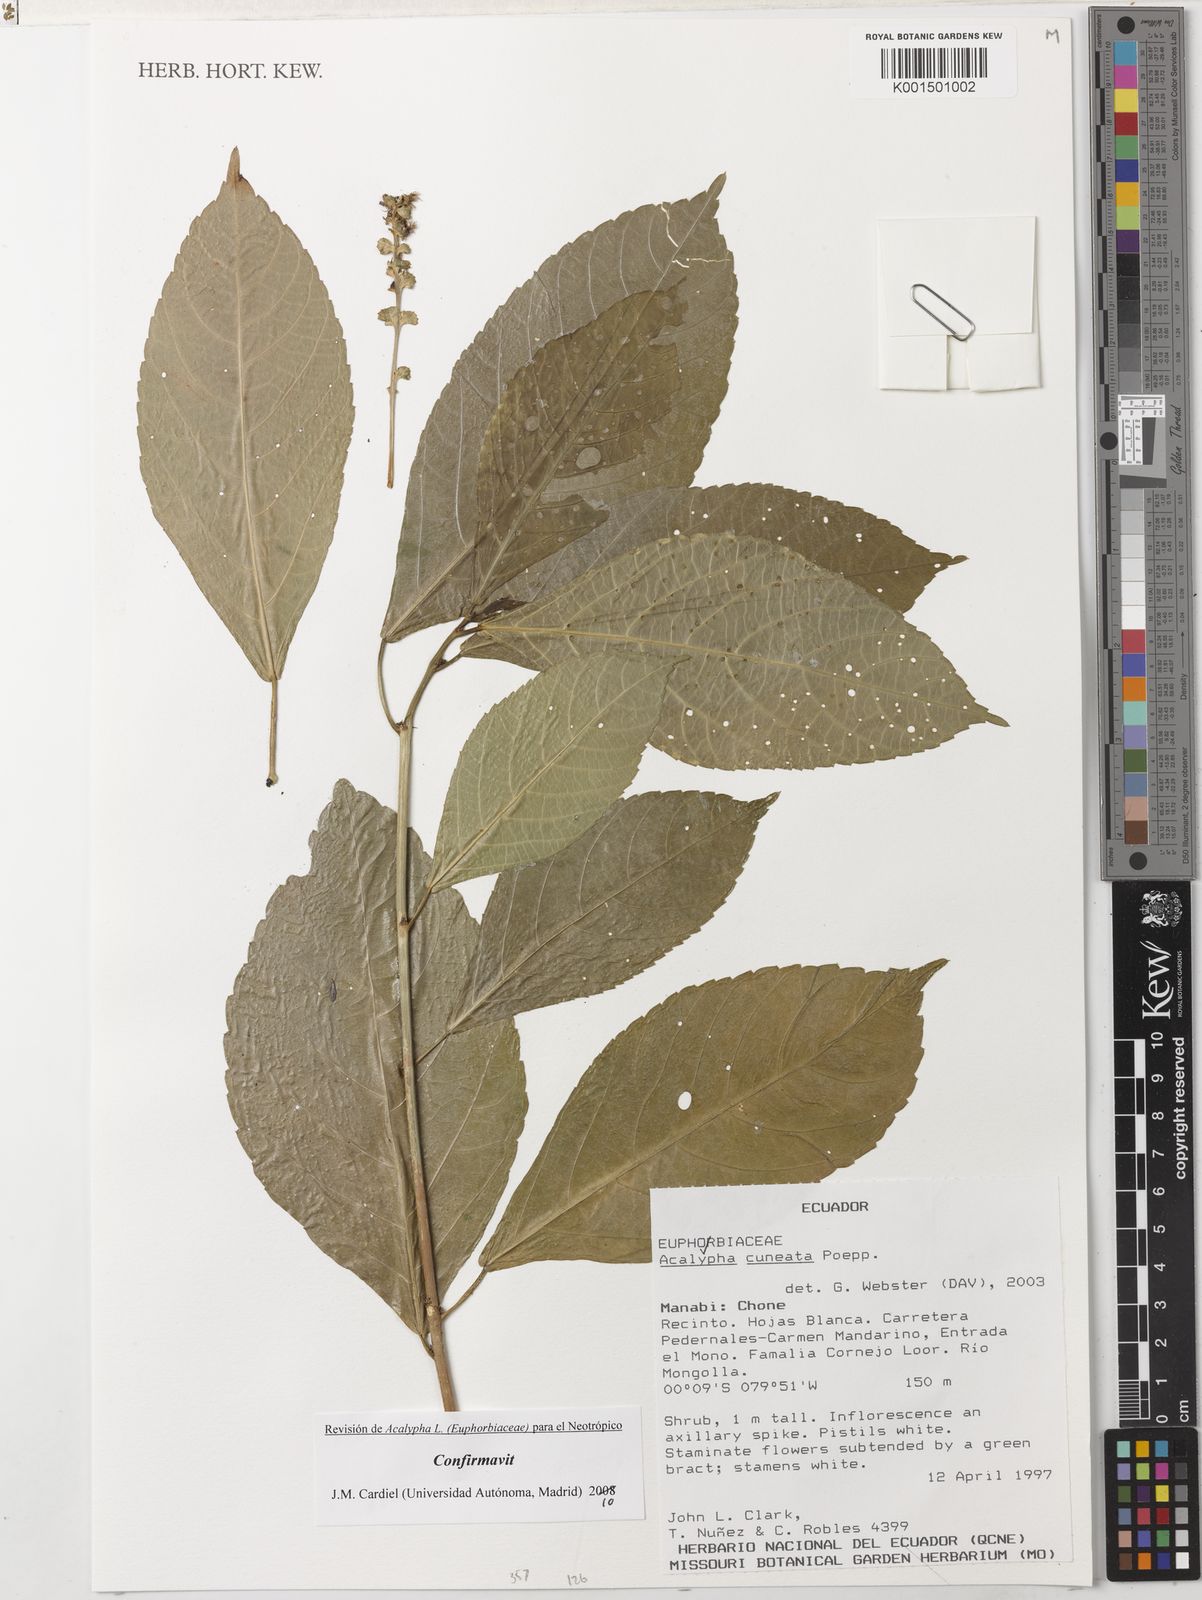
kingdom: Plantae
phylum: Tracheophyta
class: Magnoliopsida
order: Malpighiales
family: Euphorbiaceae
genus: Acalypha
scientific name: Acalypha cuneata
